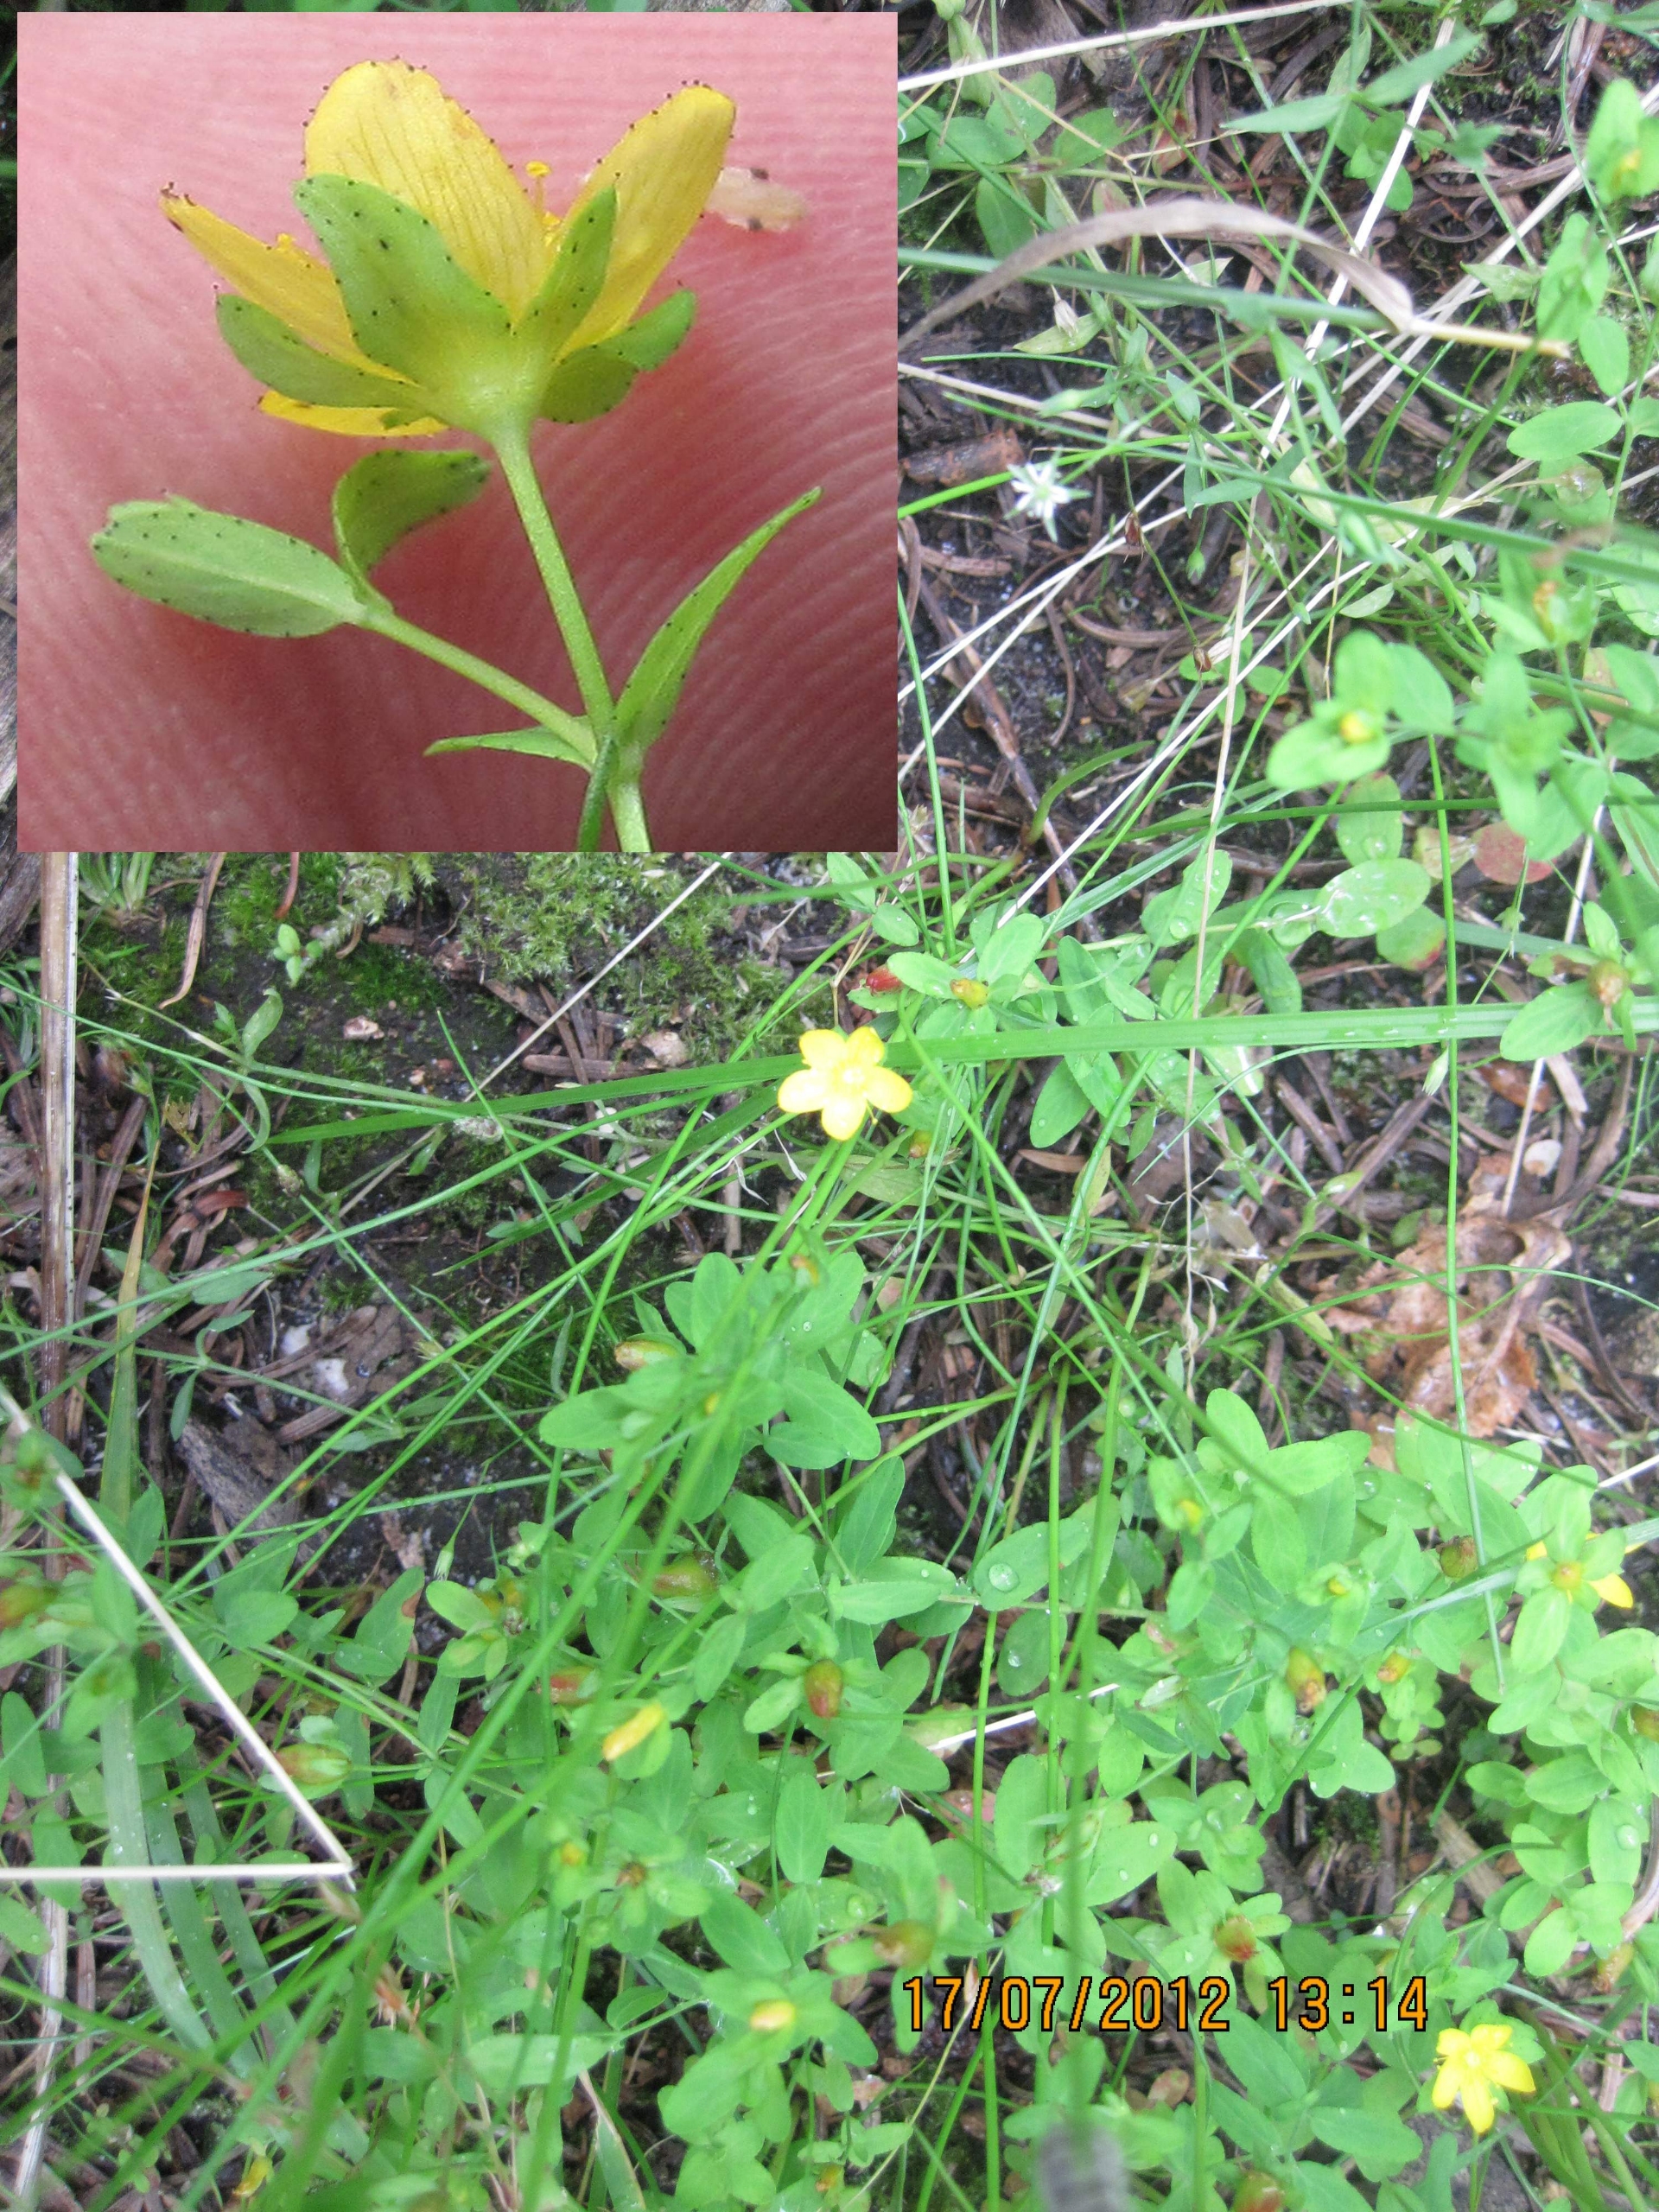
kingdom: Plantae
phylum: Tracheophyta
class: Magnoliopsida
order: Malpighiales
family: Hypericaceae
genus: Hypericum
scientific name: Hypericum humifusum
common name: Dværg-perikon
